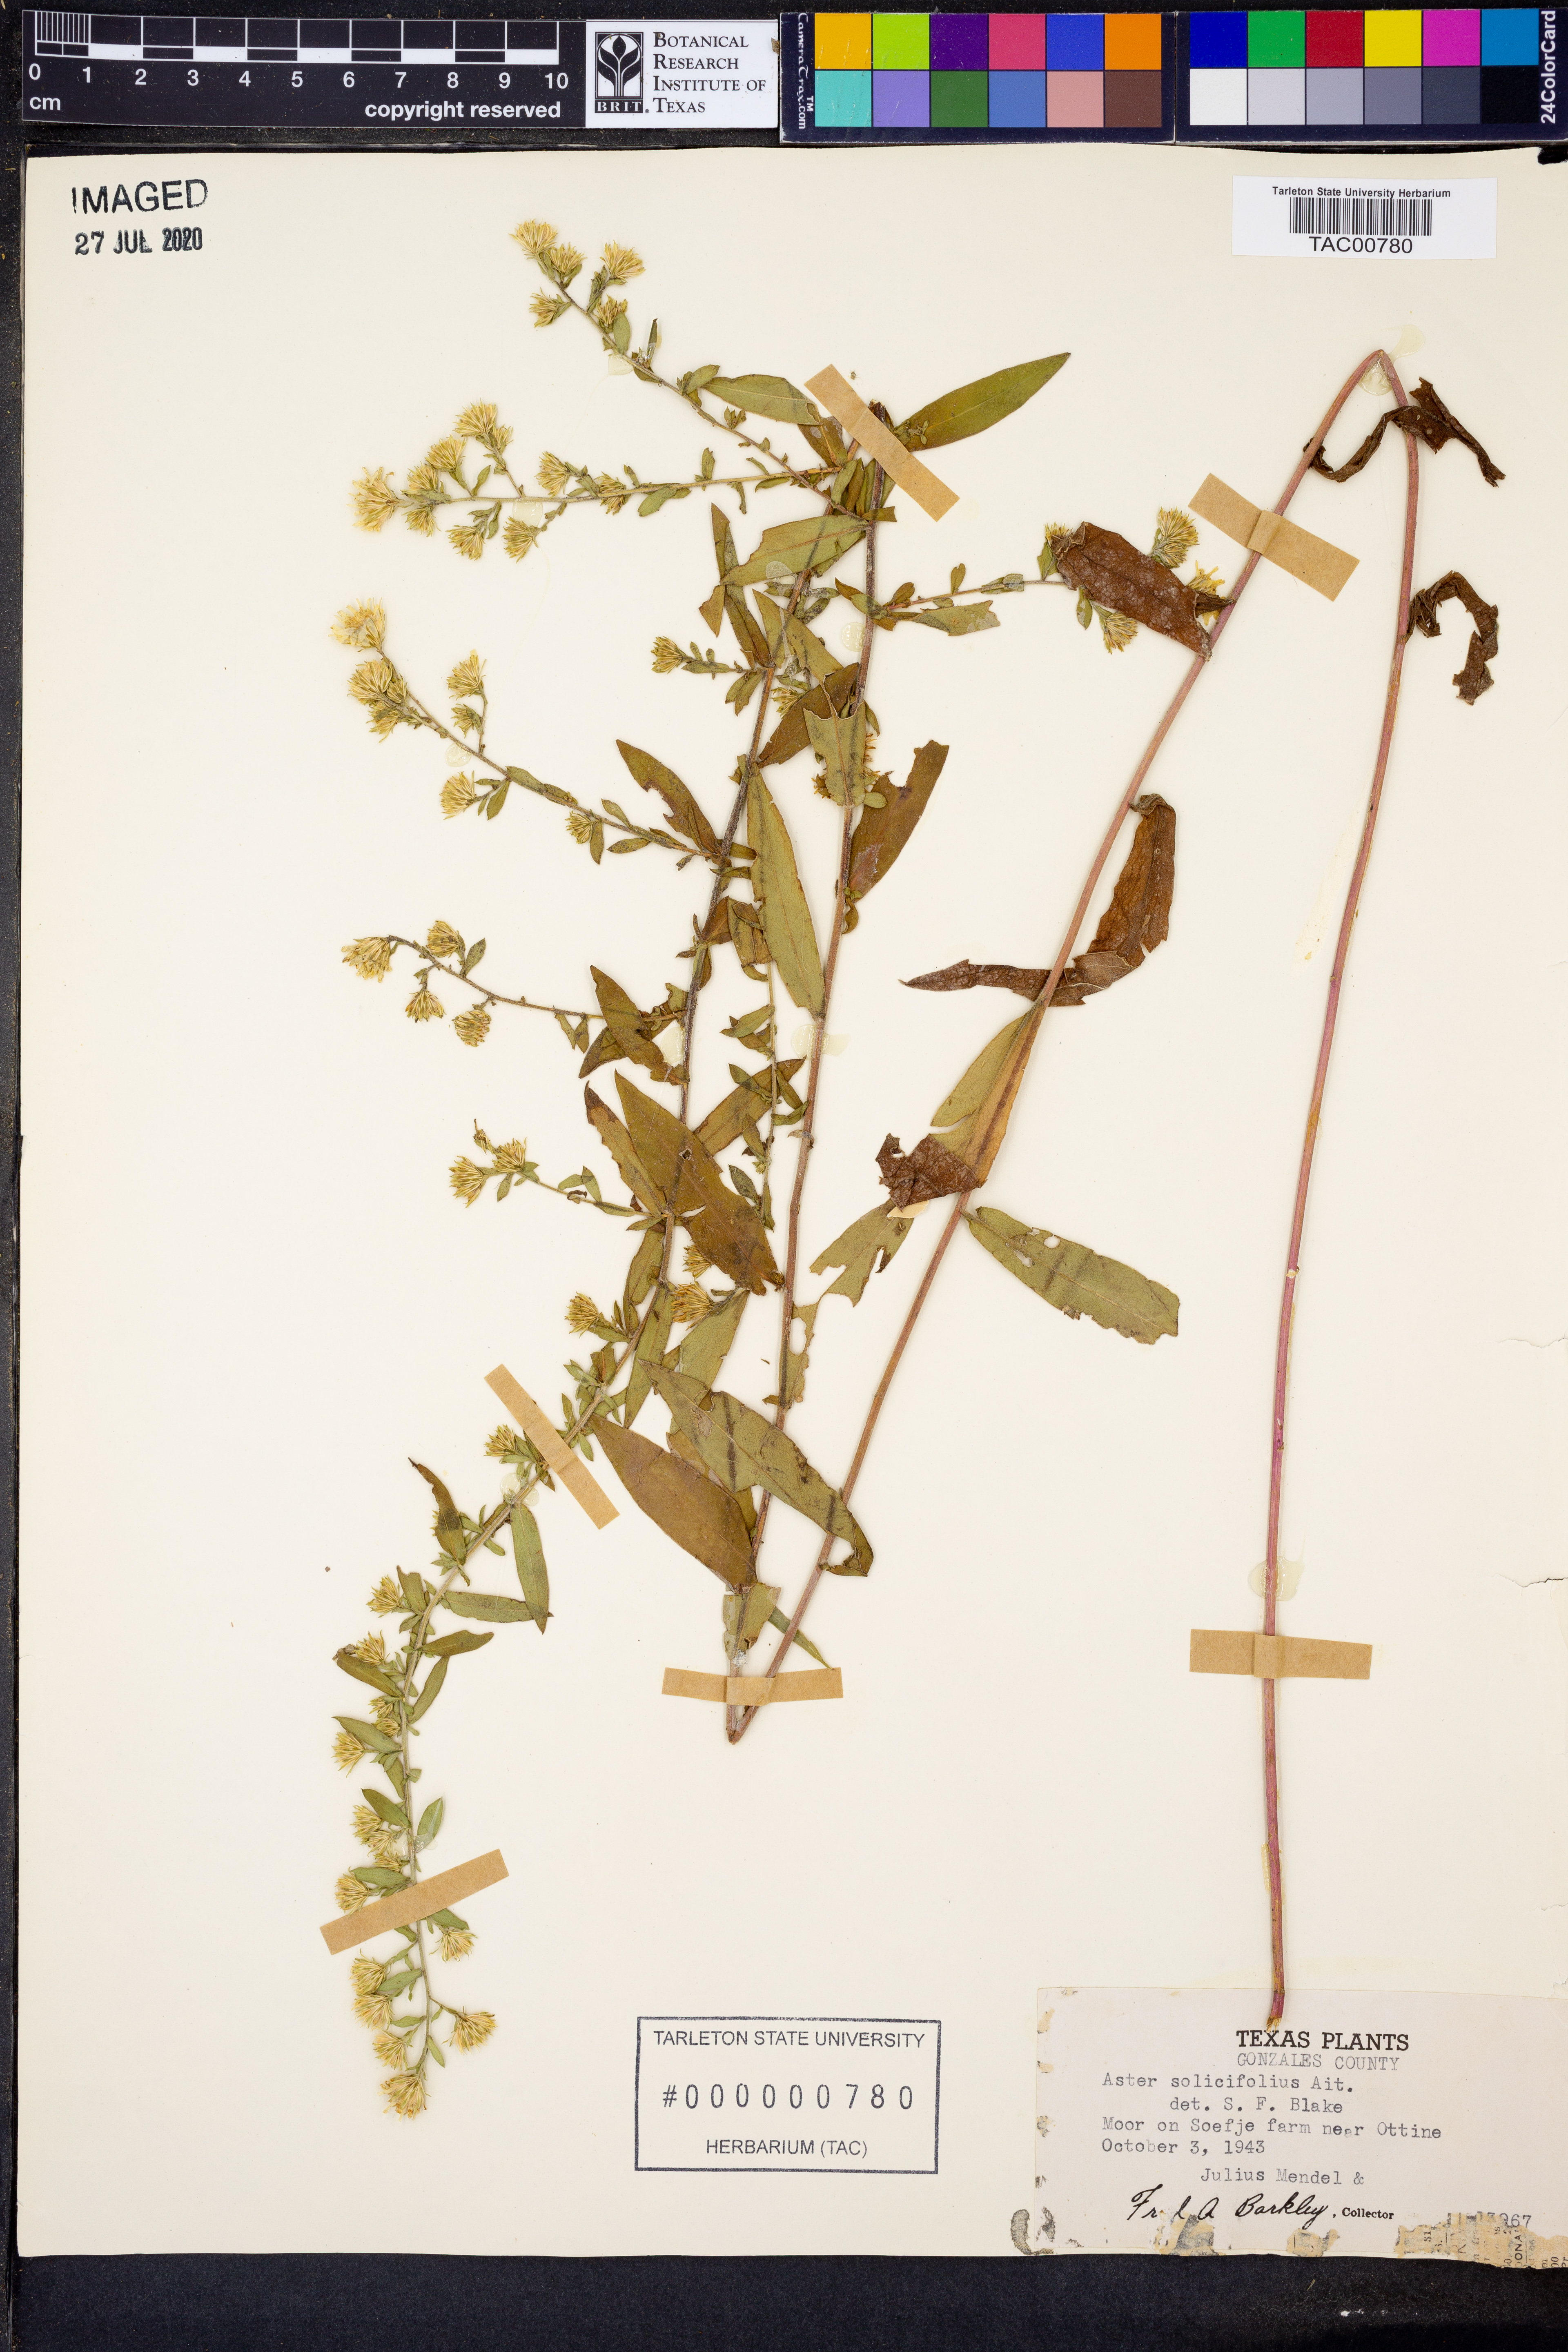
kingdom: Plantae
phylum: Tracheophyta
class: Magnoliopsida
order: Asterales
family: Asteraceae
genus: Symphyotrichum
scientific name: Symphyotrichum praealtum
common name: Willow aster
